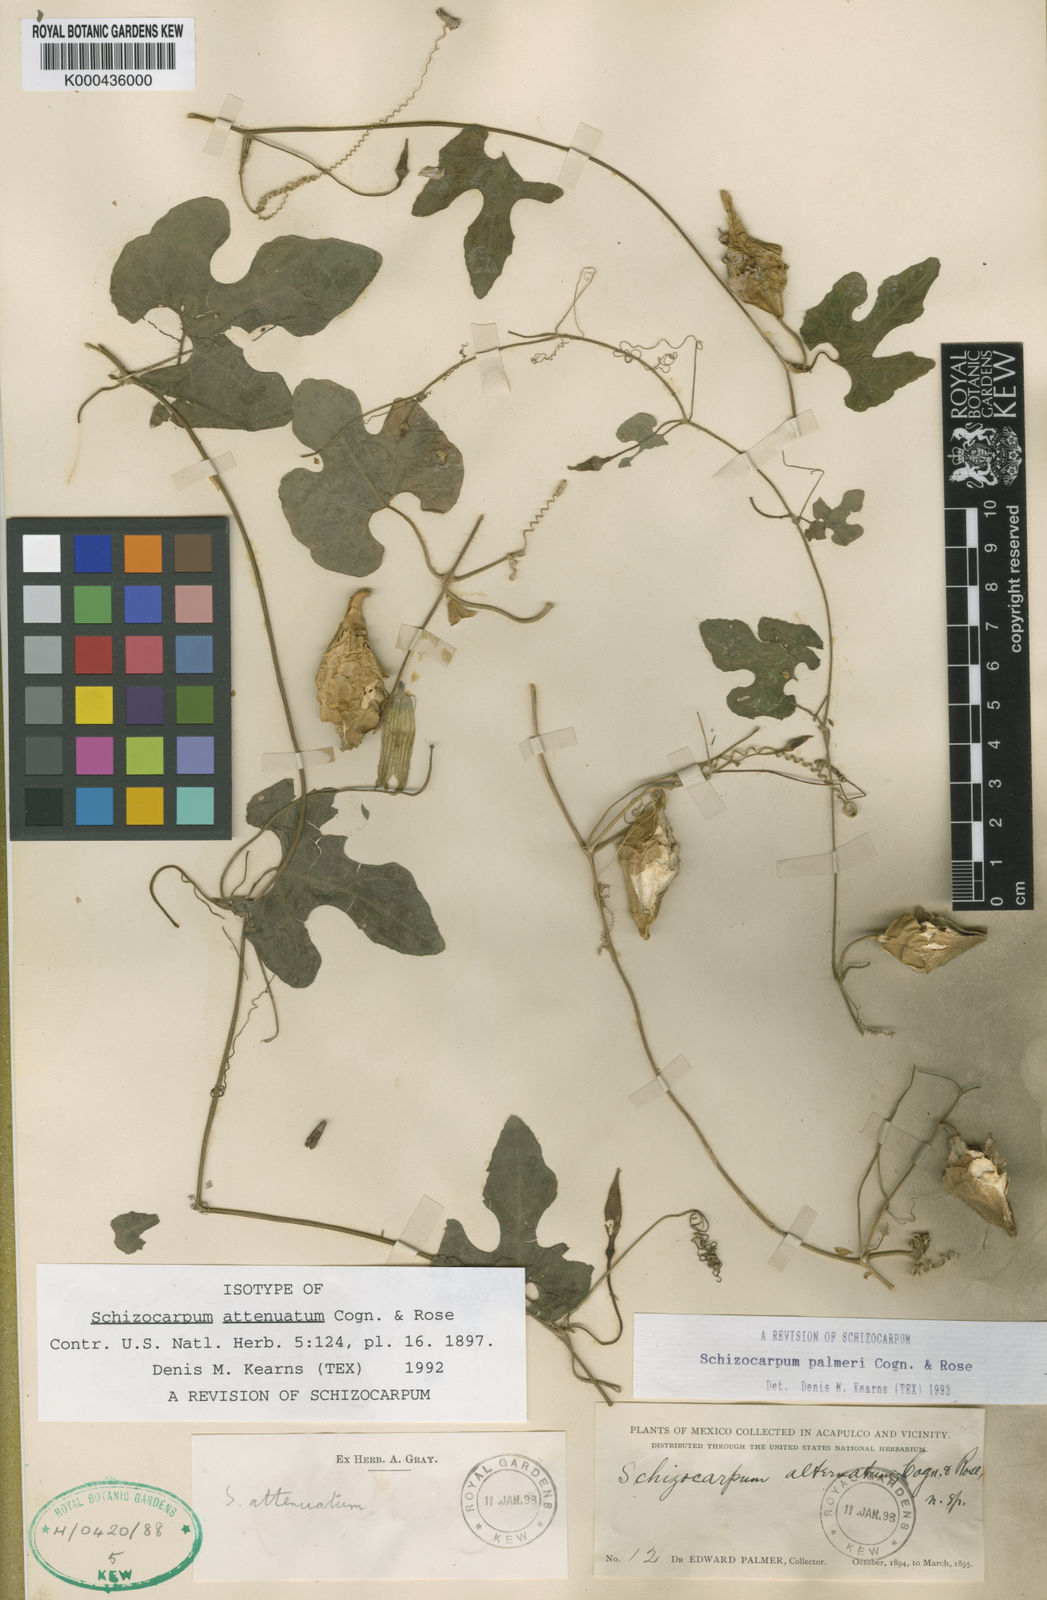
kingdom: Plantae
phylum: Tracheophyta
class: Magnoliopsida
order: Cucurbitales
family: Cucurbitaceae
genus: Schizocarpum
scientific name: Schizocarpum palmeri
